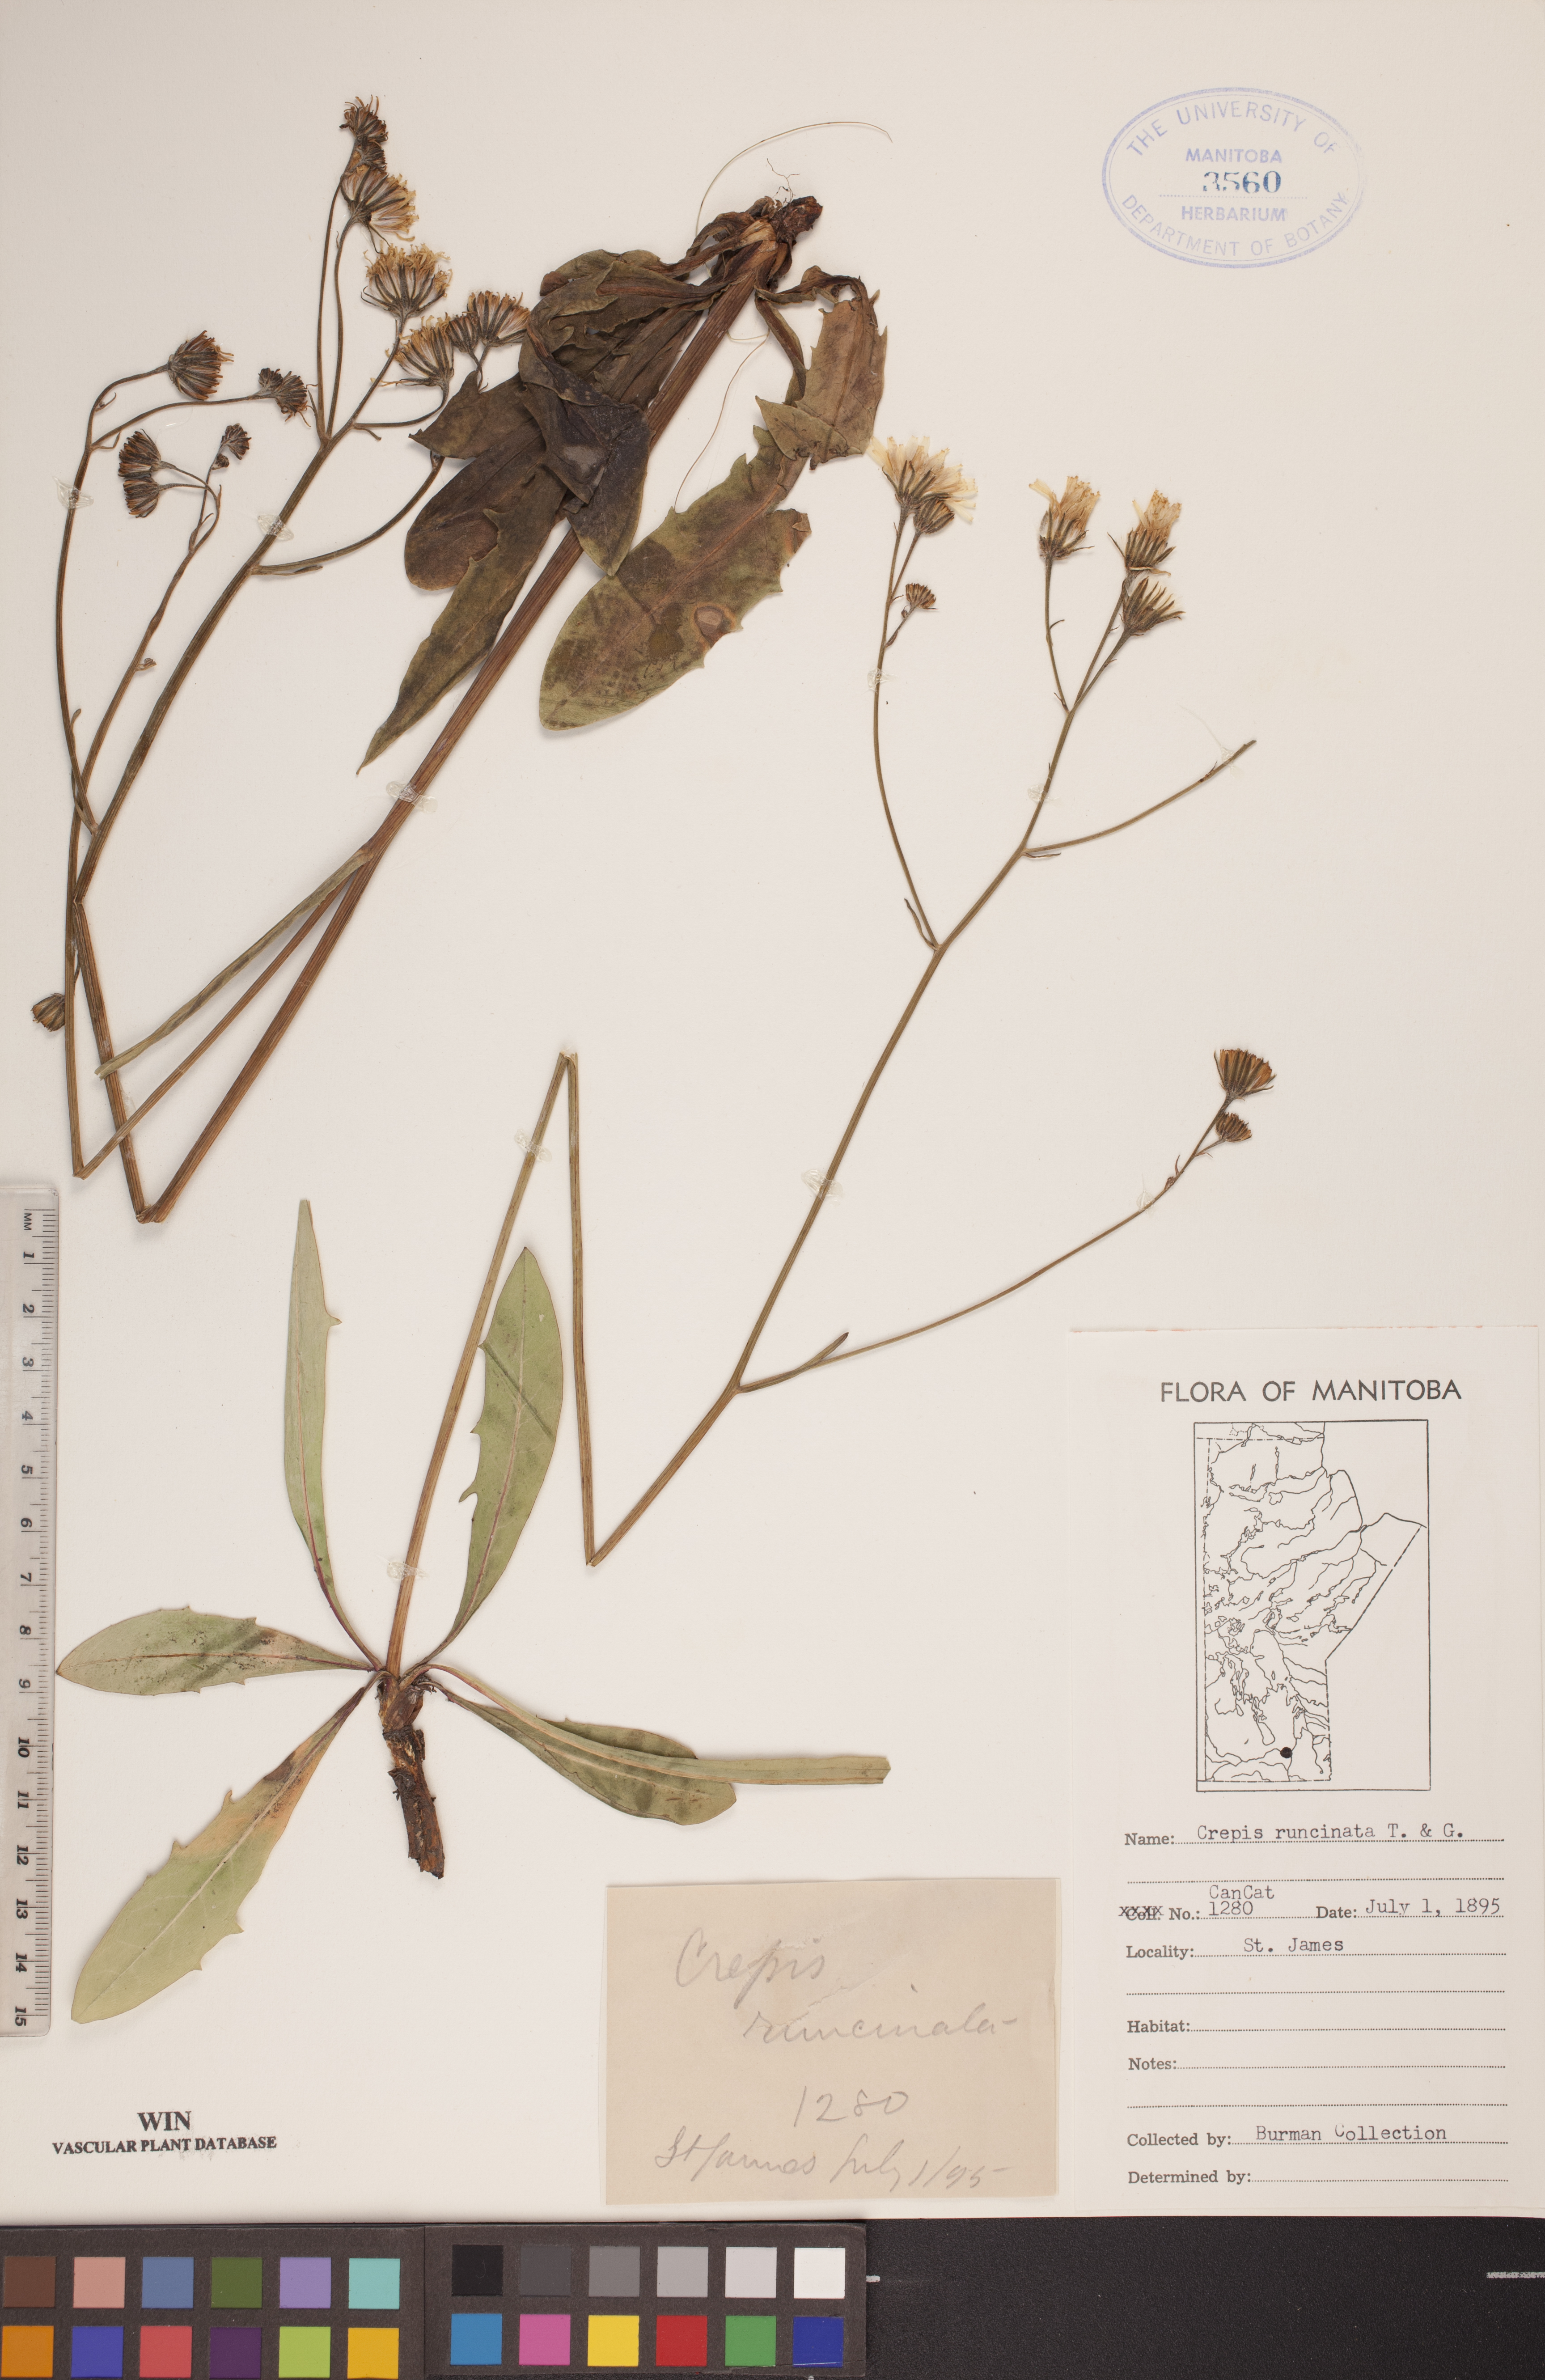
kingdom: Plantae
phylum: Tracheophyta
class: Magnoliopsida
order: Asterales
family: Asteraceae
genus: Crepis
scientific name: Crepis runcinata
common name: Dandelion hawksbeard
